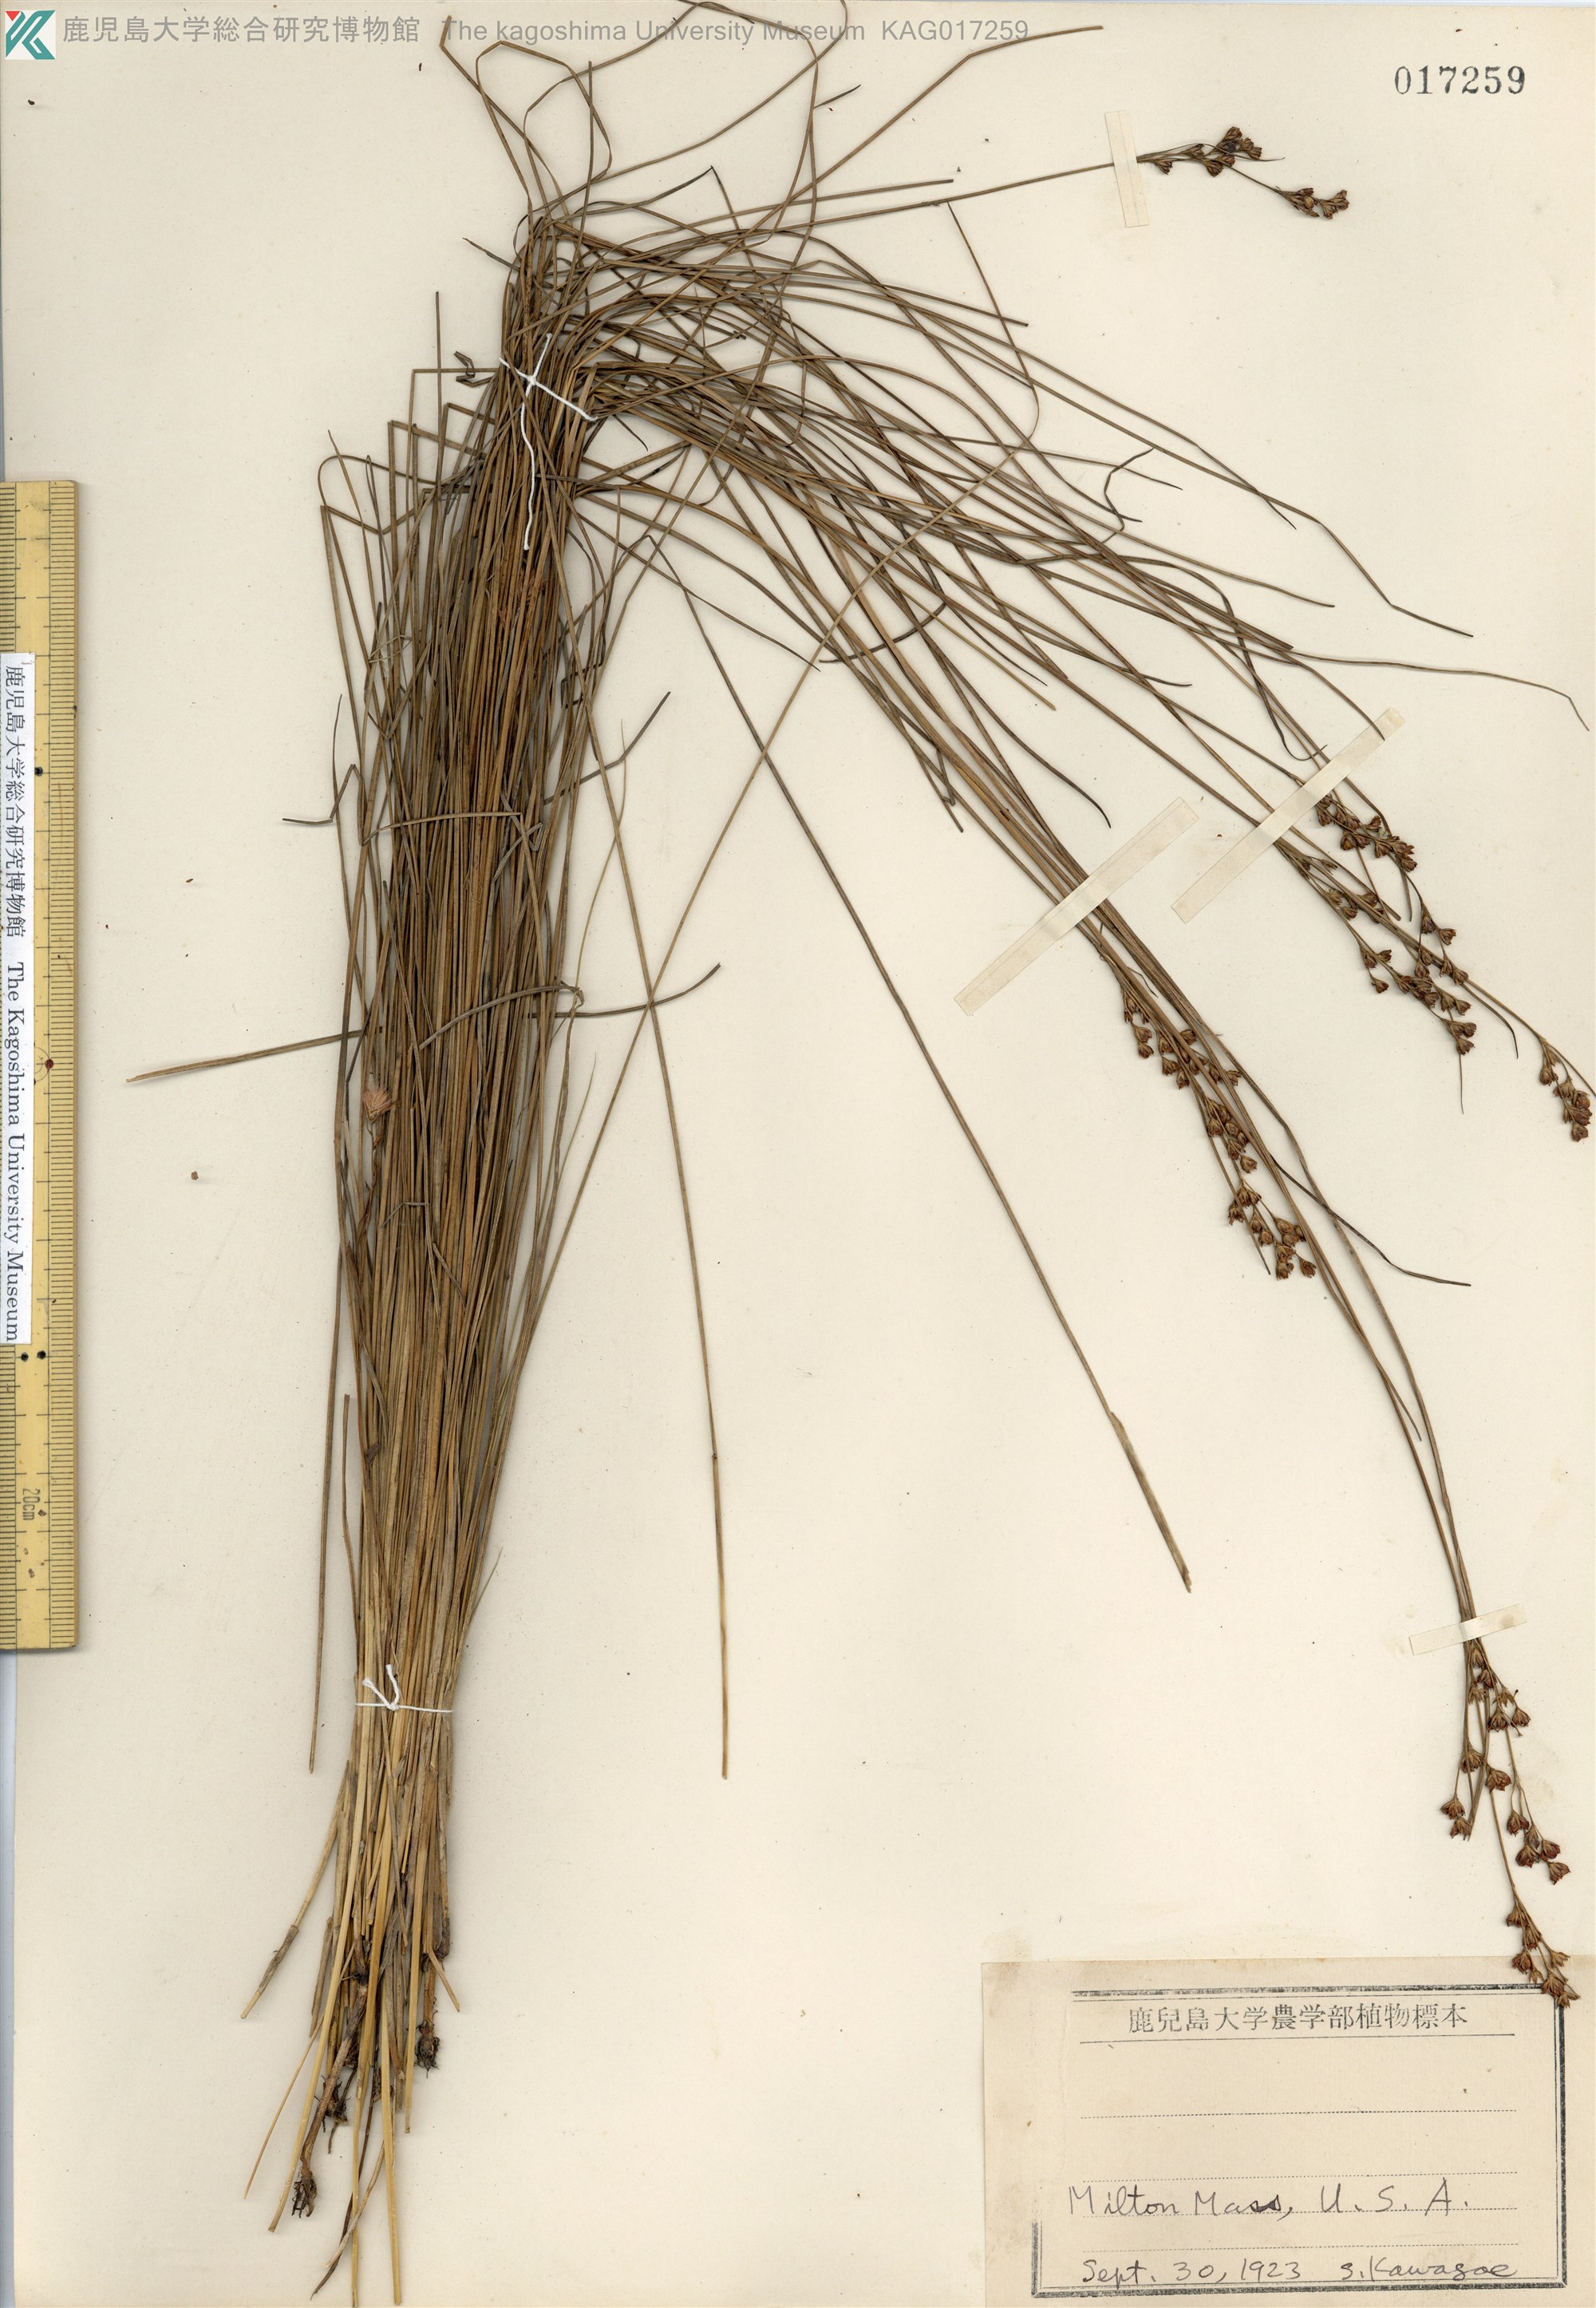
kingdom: Plantae
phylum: Tracheophyta
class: Liliopsida
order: Poales
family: Juncaceae
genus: Juncus
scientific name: Juncus
